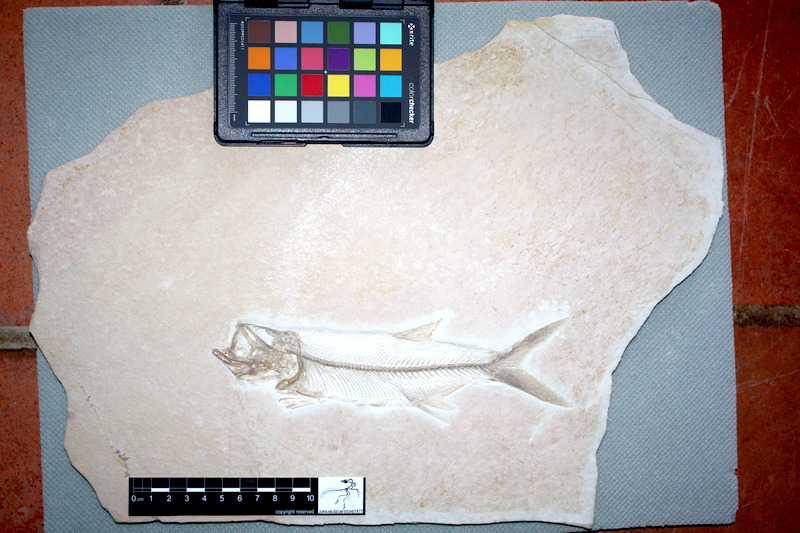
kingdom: Animalia
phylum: Chordata
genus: Pachythrissops
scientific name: Pachythrissops propterus
